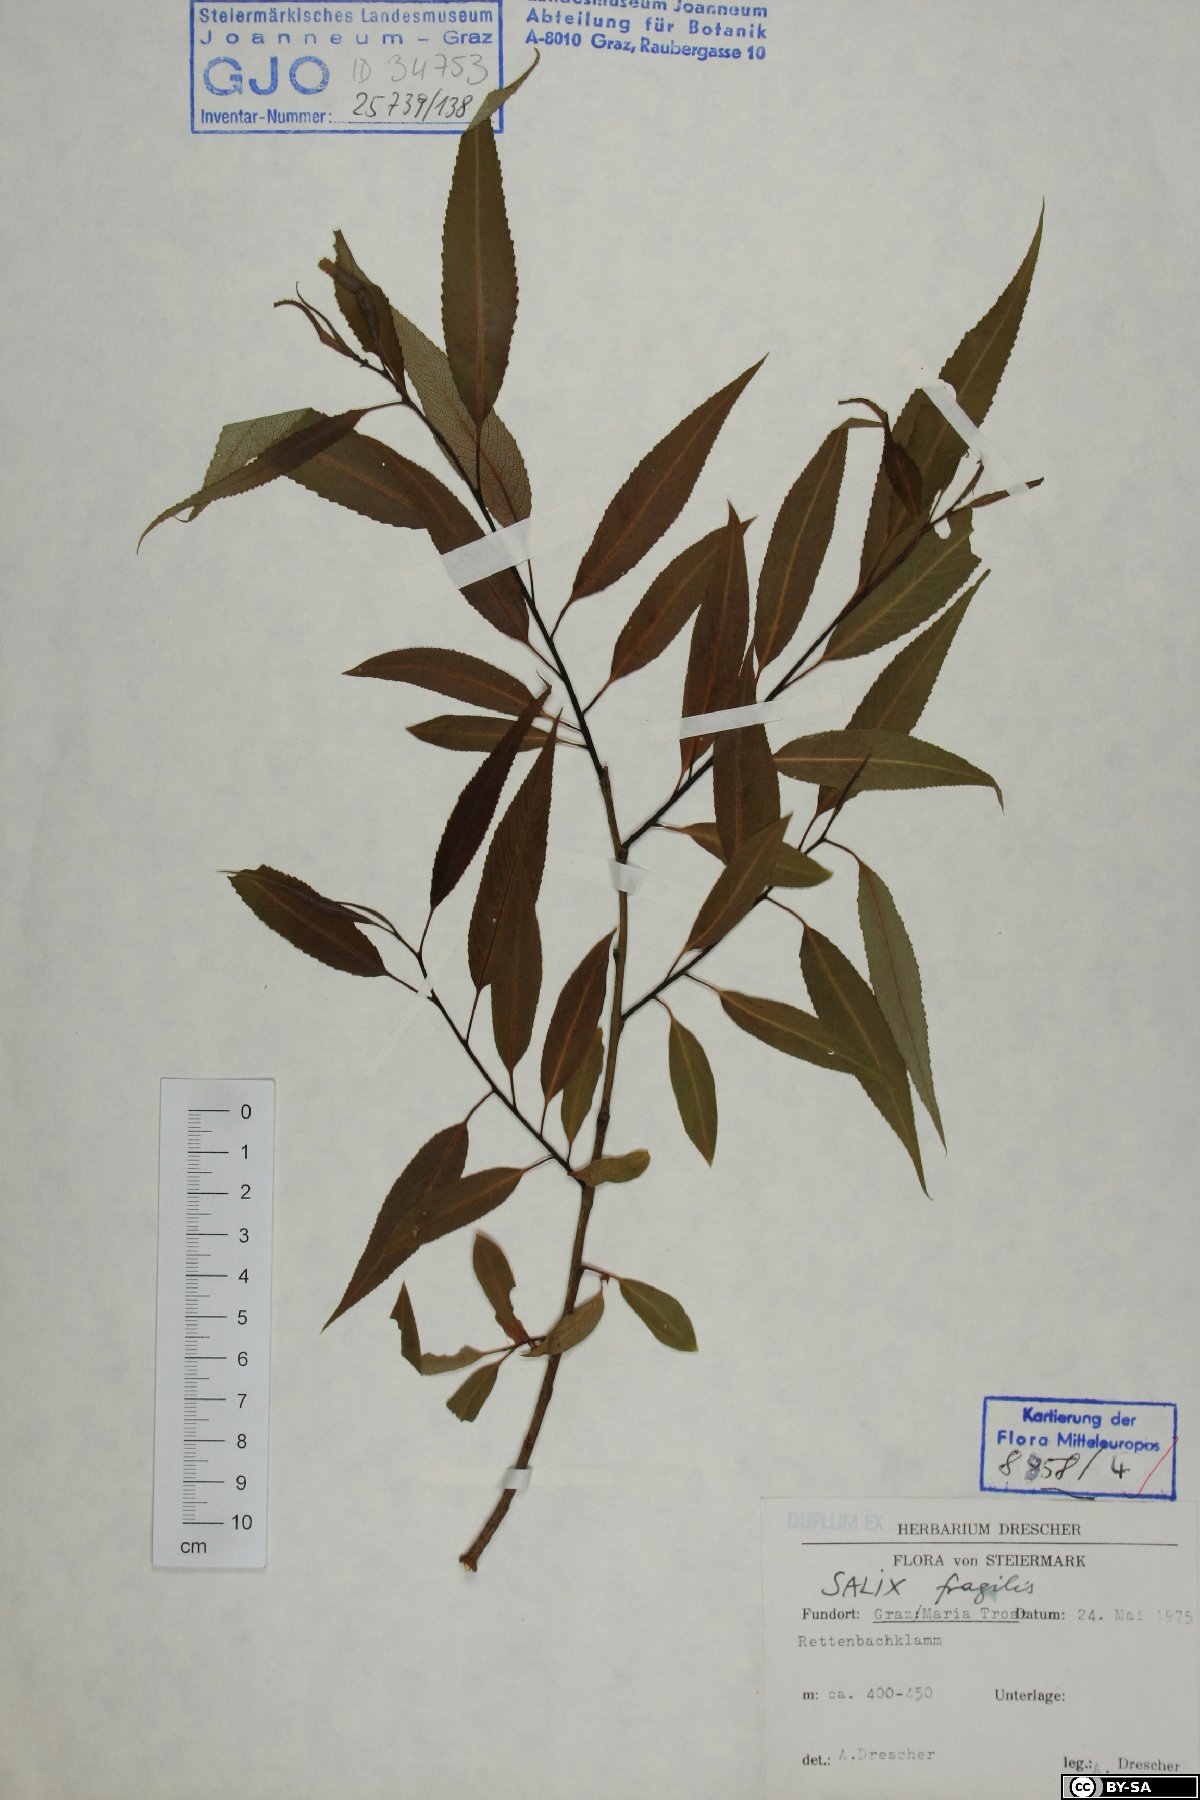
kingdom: Plantae
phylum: Tracheophyta
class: Magnoliopsida
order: Malpighiales
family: Salicaceae
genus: Salix
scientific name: Salix fragilis
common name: Crack willow
